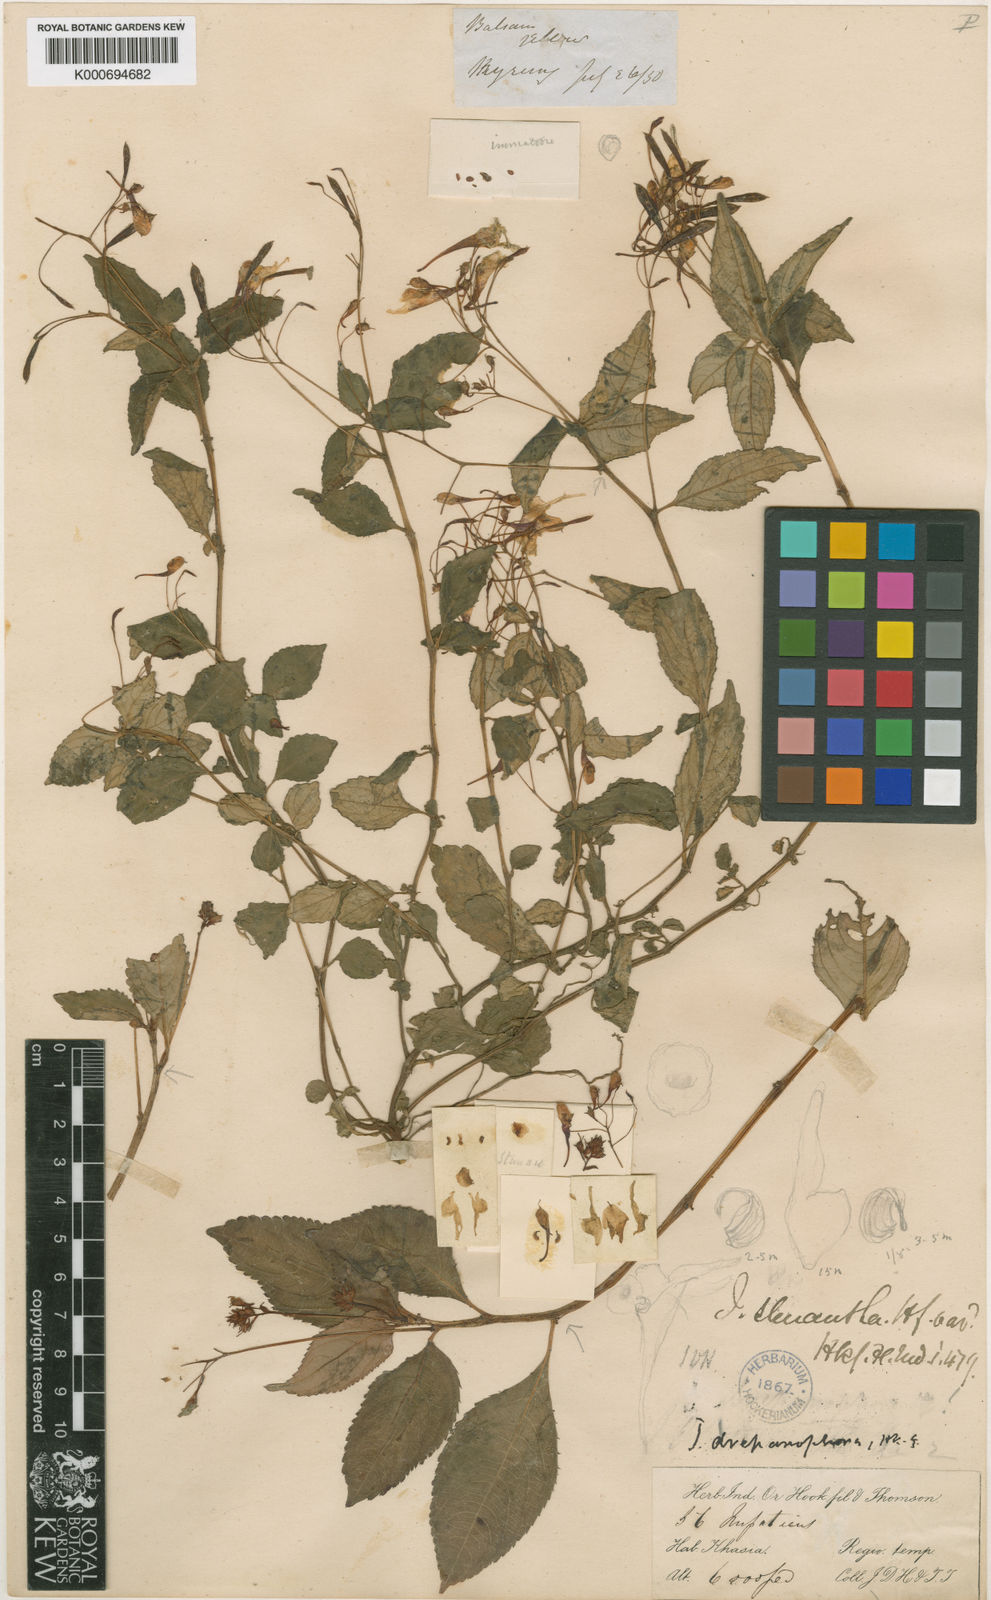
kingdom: Plantae
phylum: Tracheophyta
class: Magnoliopsida
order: Ericales
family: Balsaminaceae
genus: Impatiens
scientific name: Impatiens drepanophora
